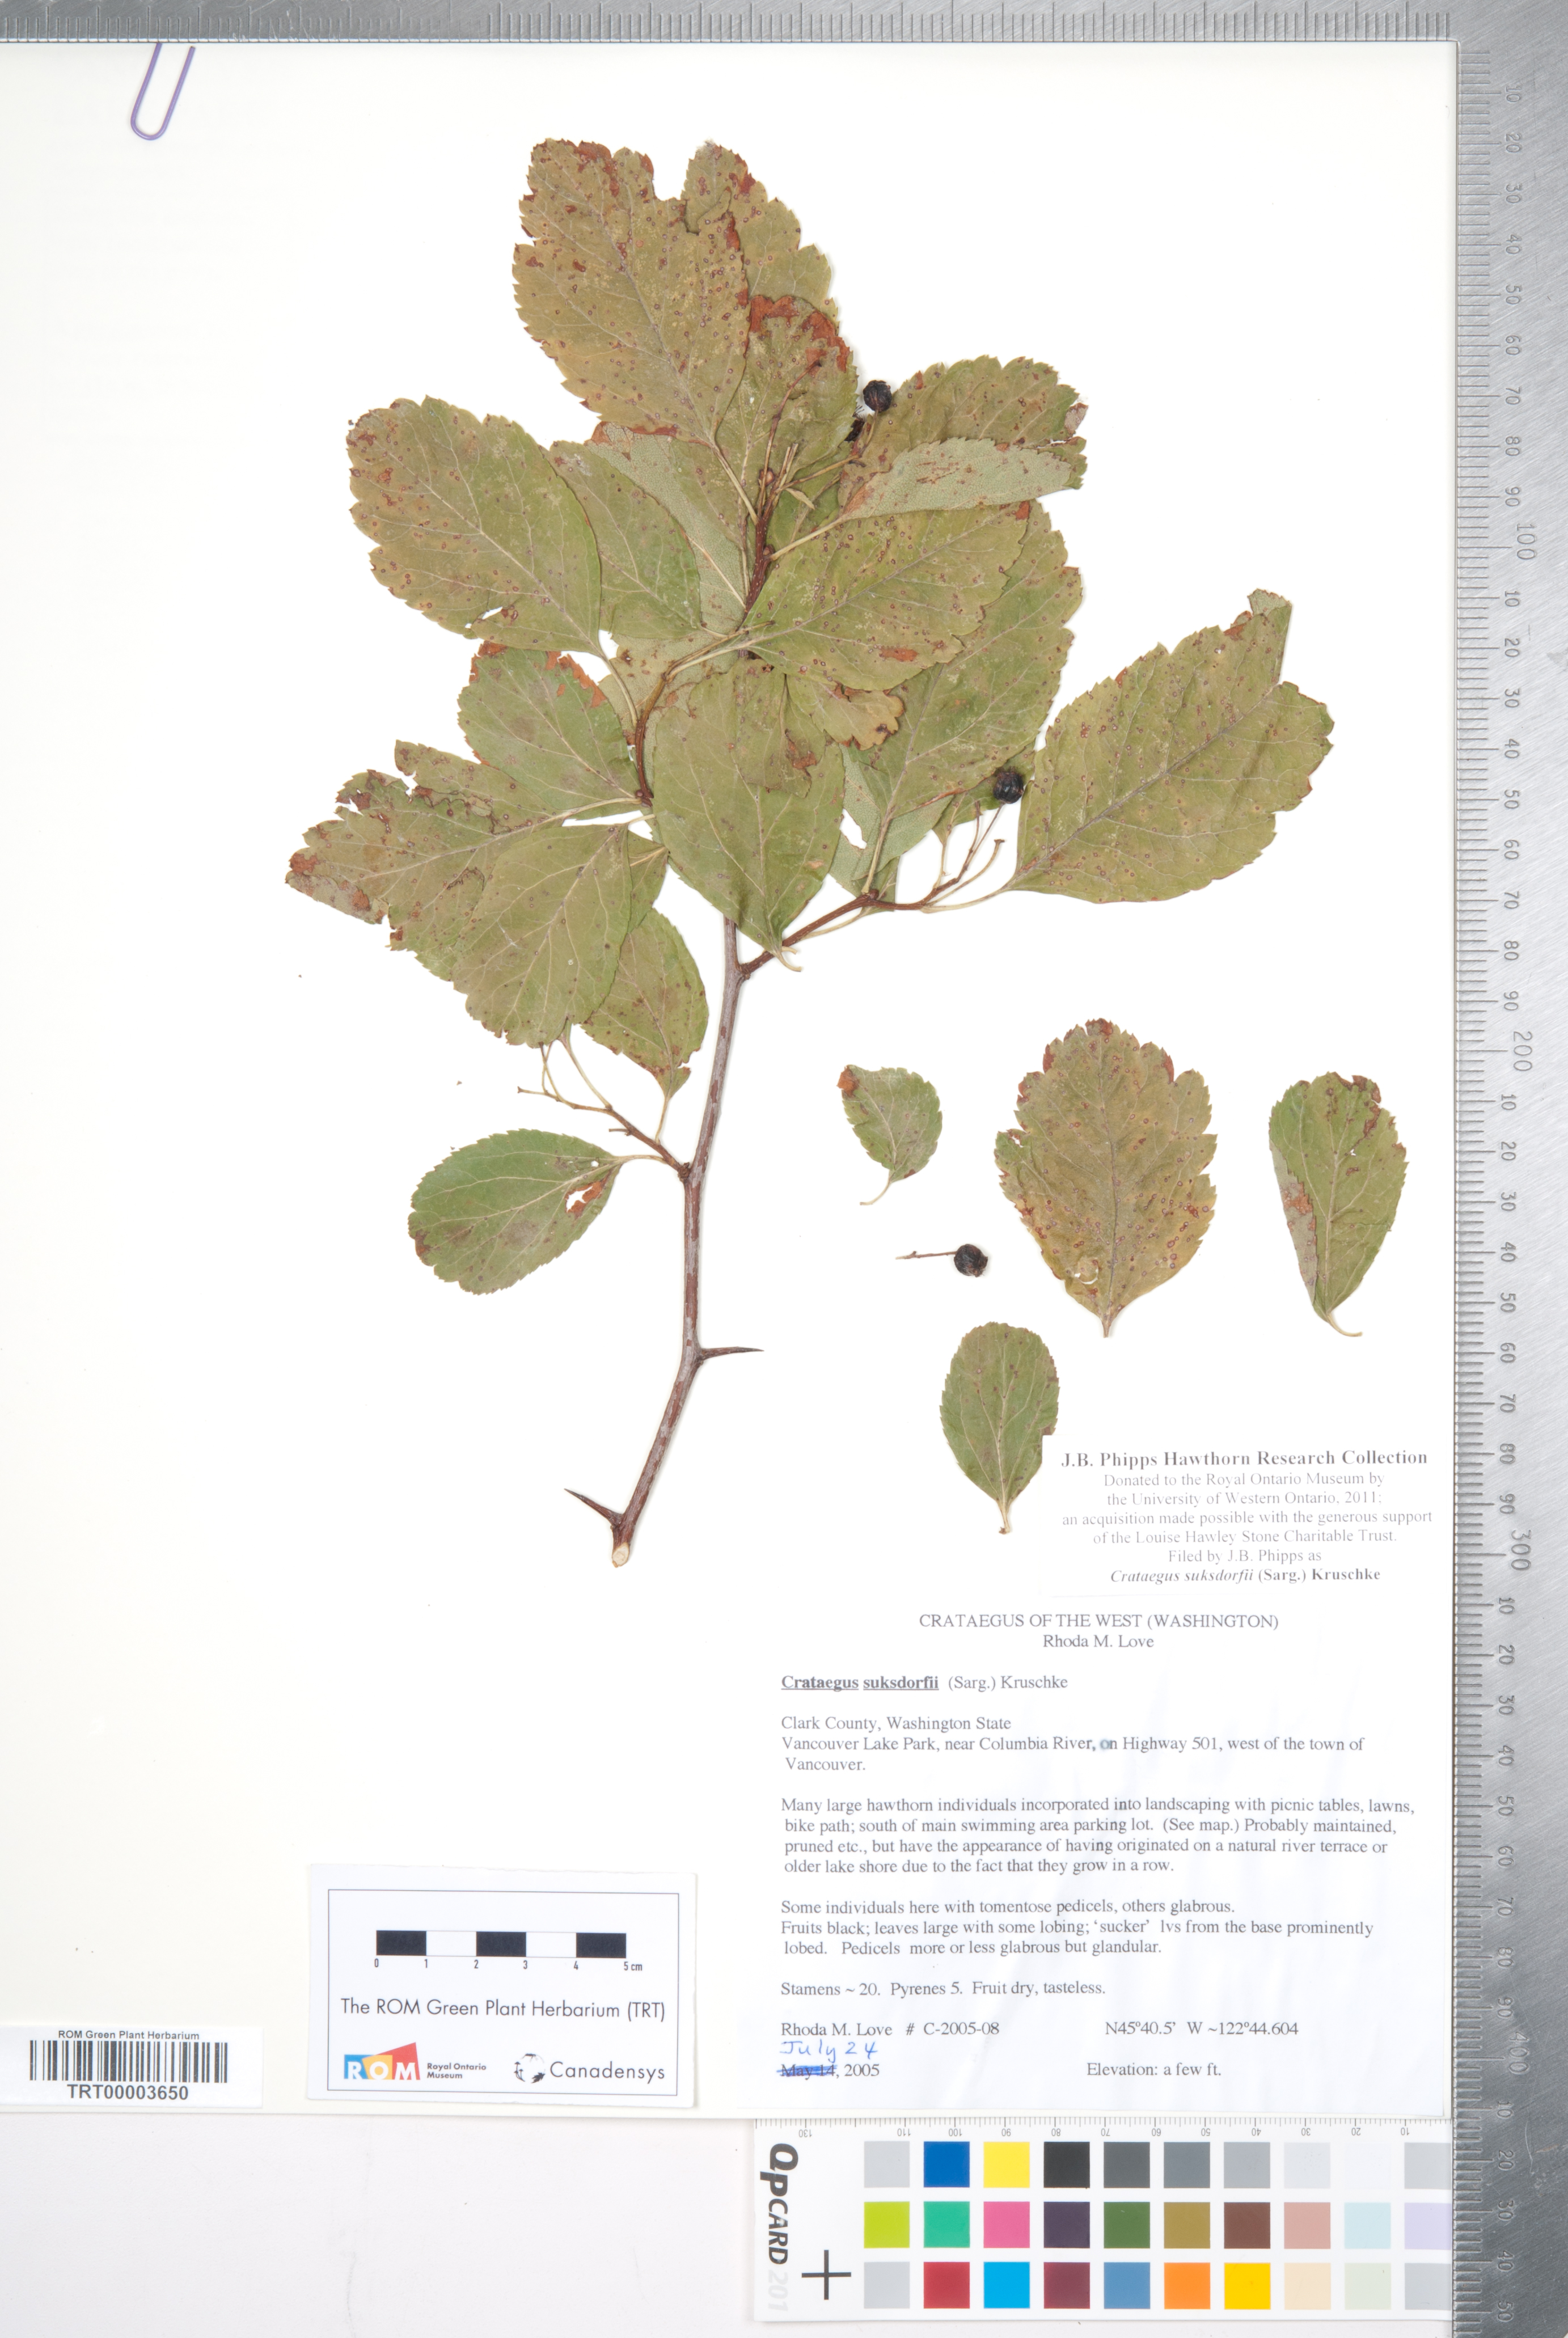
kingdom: Plantae
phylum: Tracheophyta
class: Magnoliopsida
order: Rosales
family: Rosaceae
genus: Crataegus
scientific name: Crataegus gaylussacia
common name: Huckleberry hawthorn
